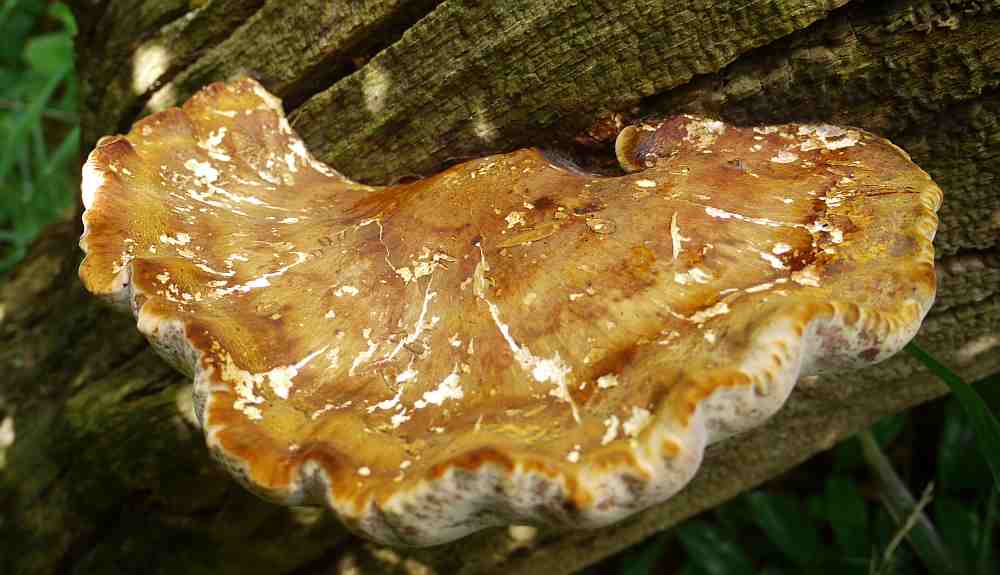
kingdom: Fungi
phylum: Basidiomycota
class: Agaricomycetes
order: Polyporales
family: Fomitopsidaceae
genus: Buglossoporus
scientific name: Buglossoporus quercinus
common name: egetunge
